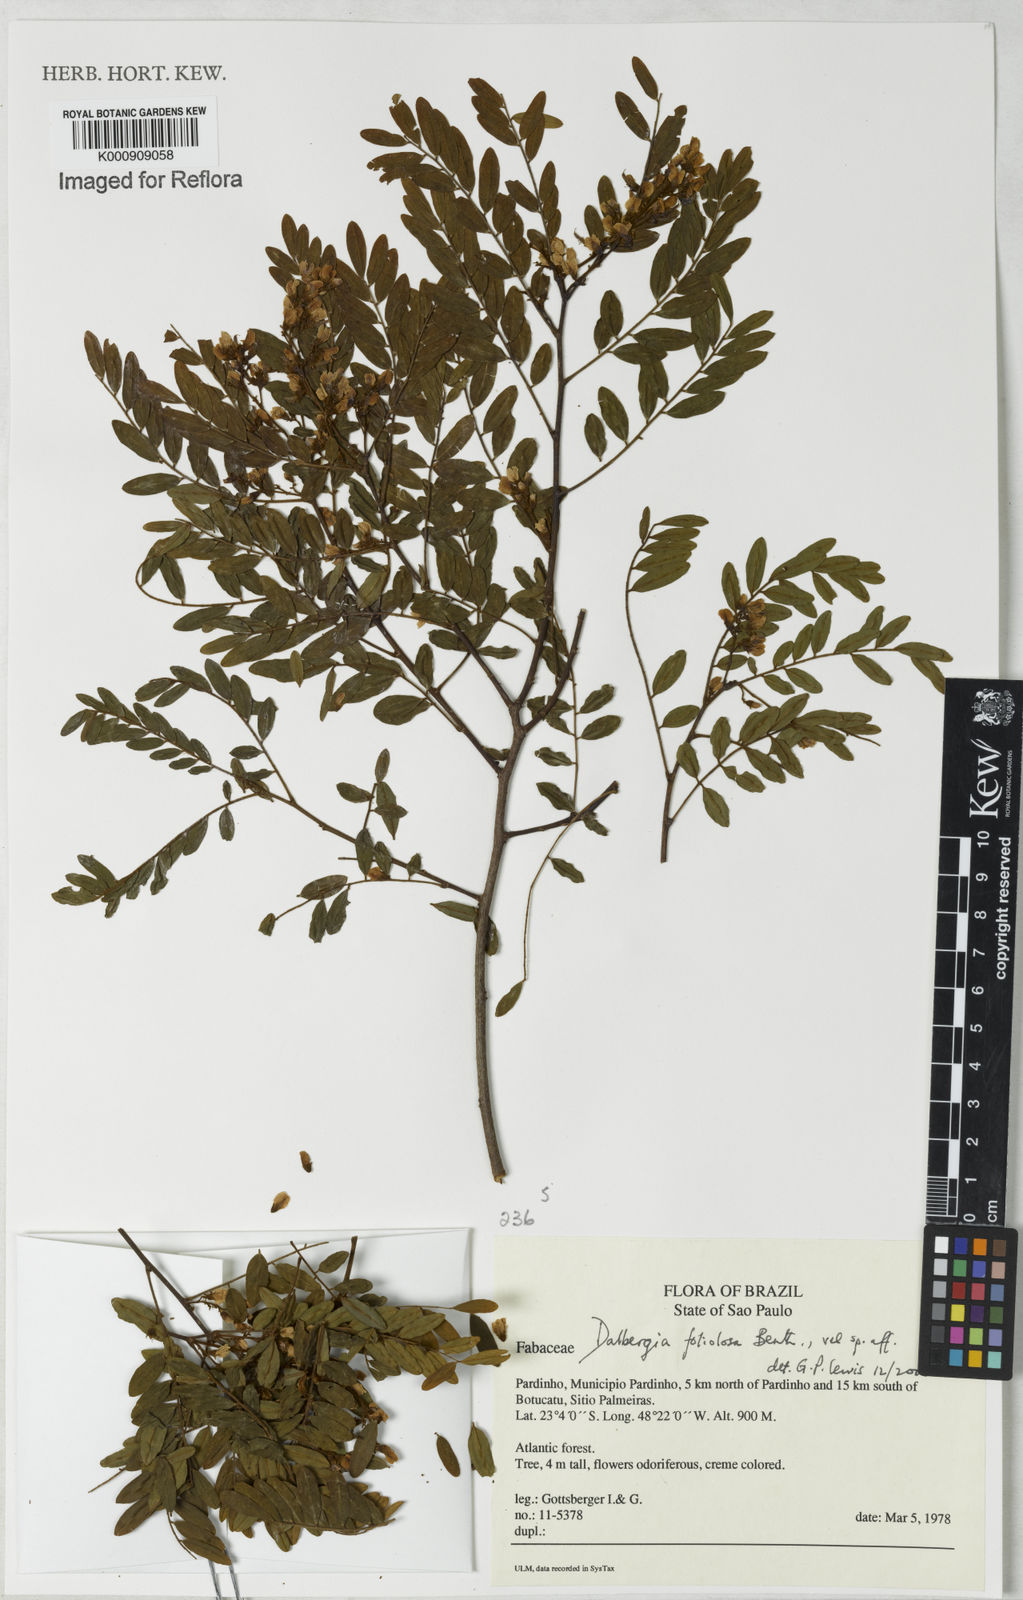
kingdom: Plantae
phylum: Tracheophyta
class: Magnoliopsida
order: Fabales
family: Fabaceae
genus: Dalbergia
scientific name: Dalbergia foliolosa
